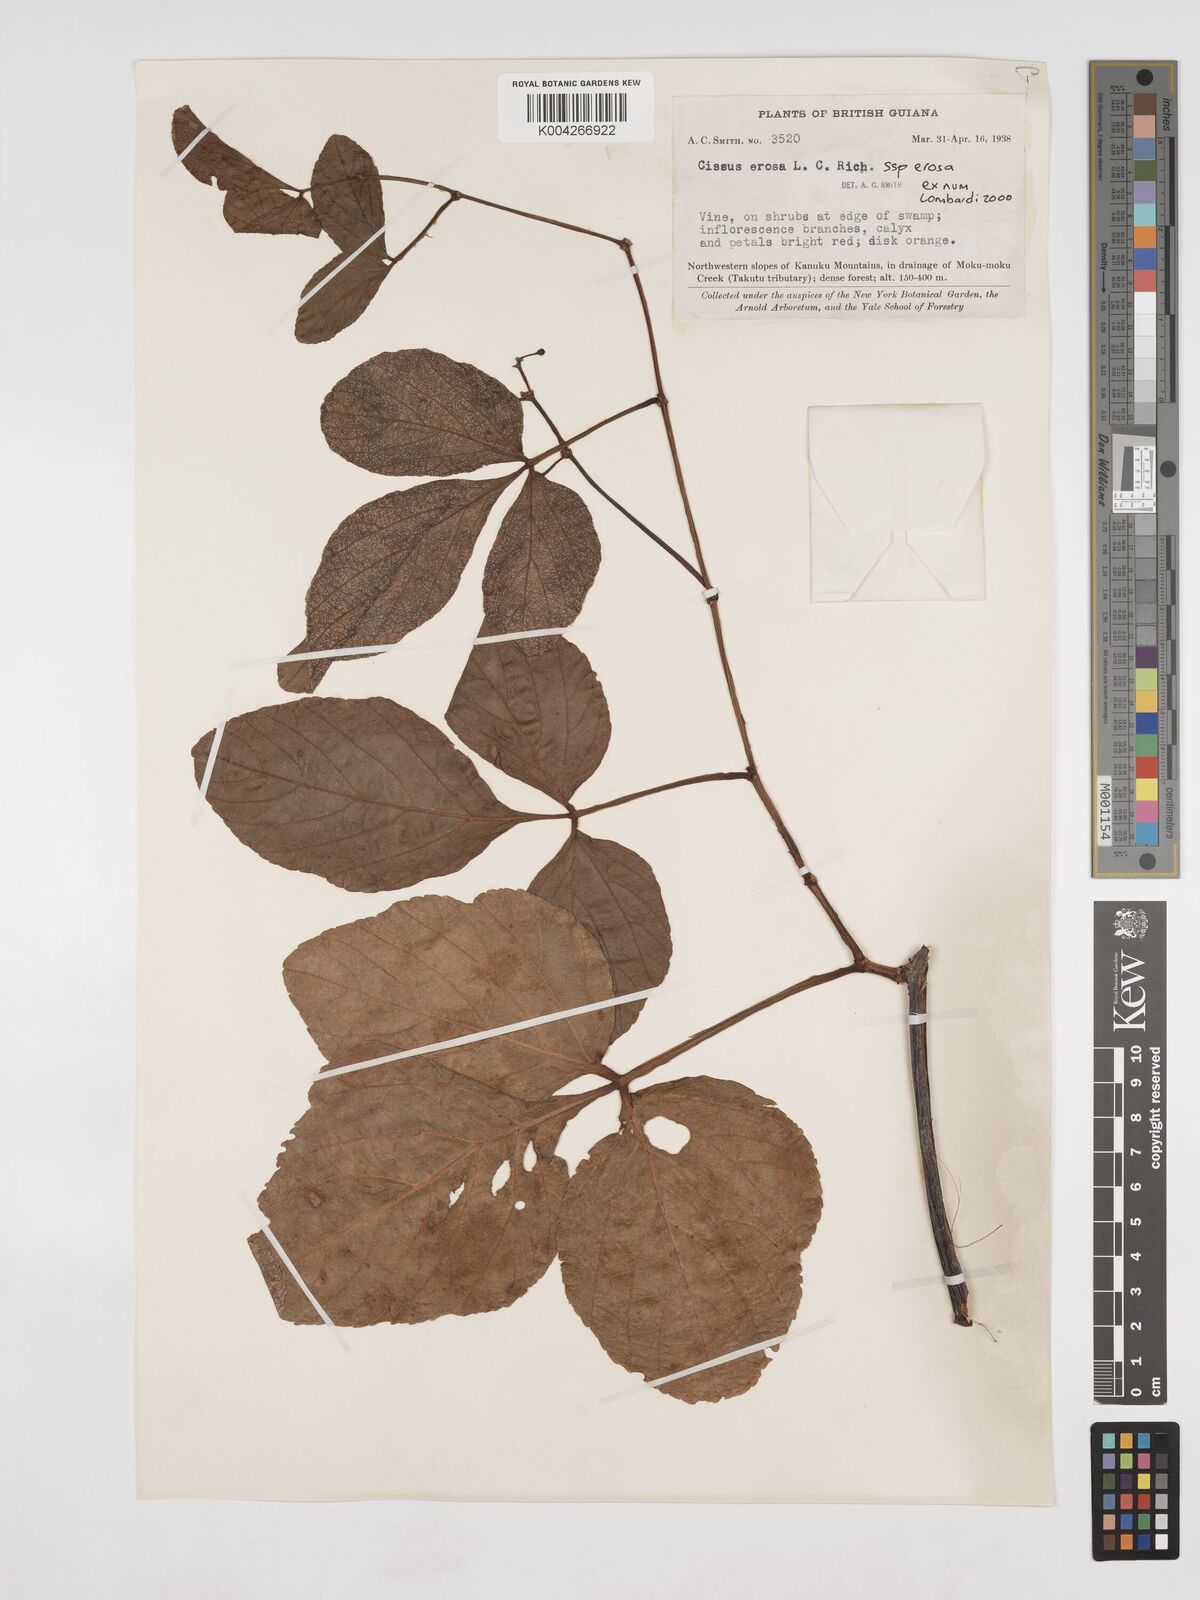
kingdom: Plantae
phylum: Tracheophyta
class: Magnoliopsida
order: Vitales
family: Vitaceae
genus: Cissus
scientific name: Cissus erosa
